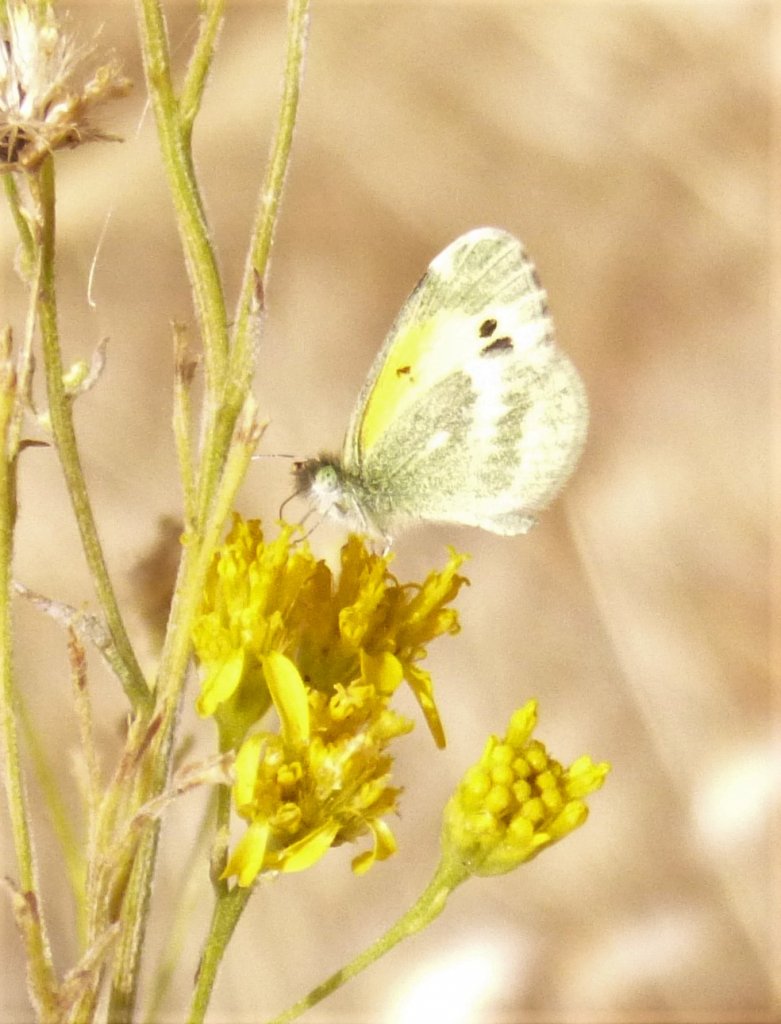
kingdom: Animalia
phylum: Arthropoda
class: Insecta
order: Lepidoptera
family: Pieridae
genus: Nathalis
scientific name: Nathalis iole
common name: Dainty Sulphur
